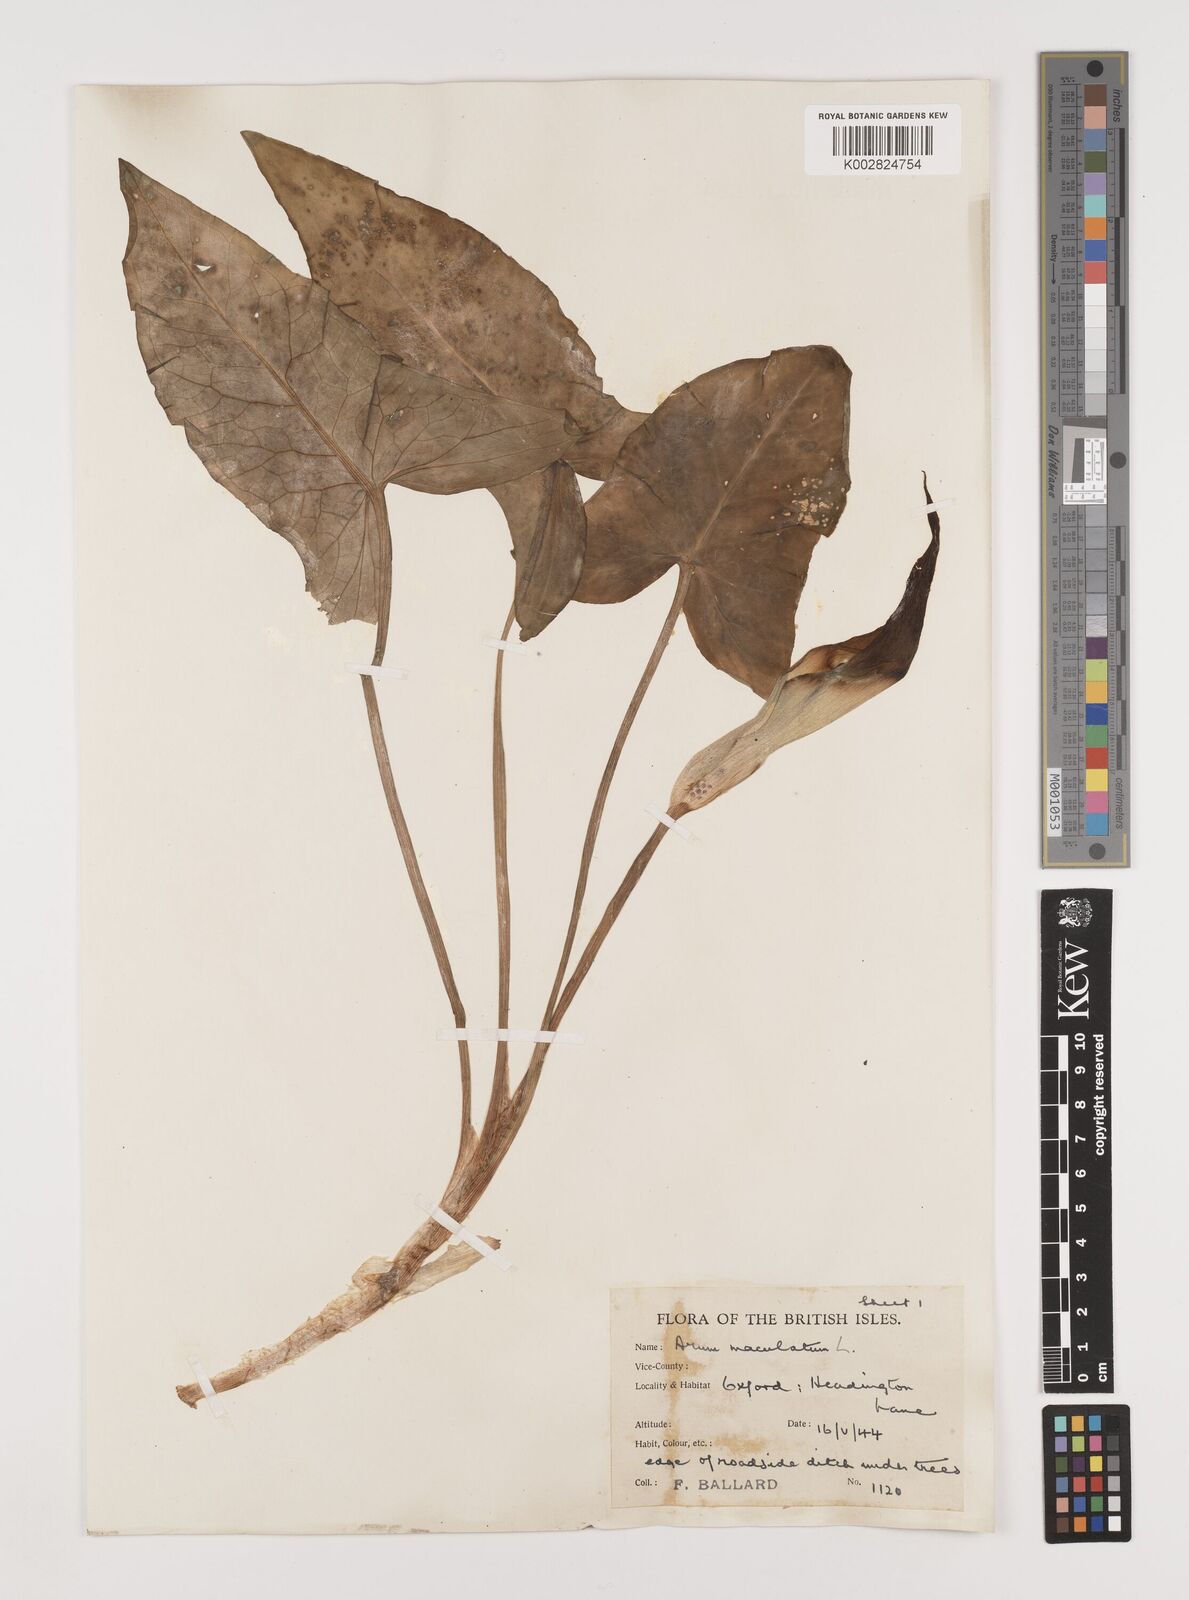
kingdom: Plantae
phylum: Tracheophyta
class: Liliopsida
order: Alismatales
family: Araceae
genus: Arum
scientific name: Arum maculatum
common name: Lords-and-ladies
